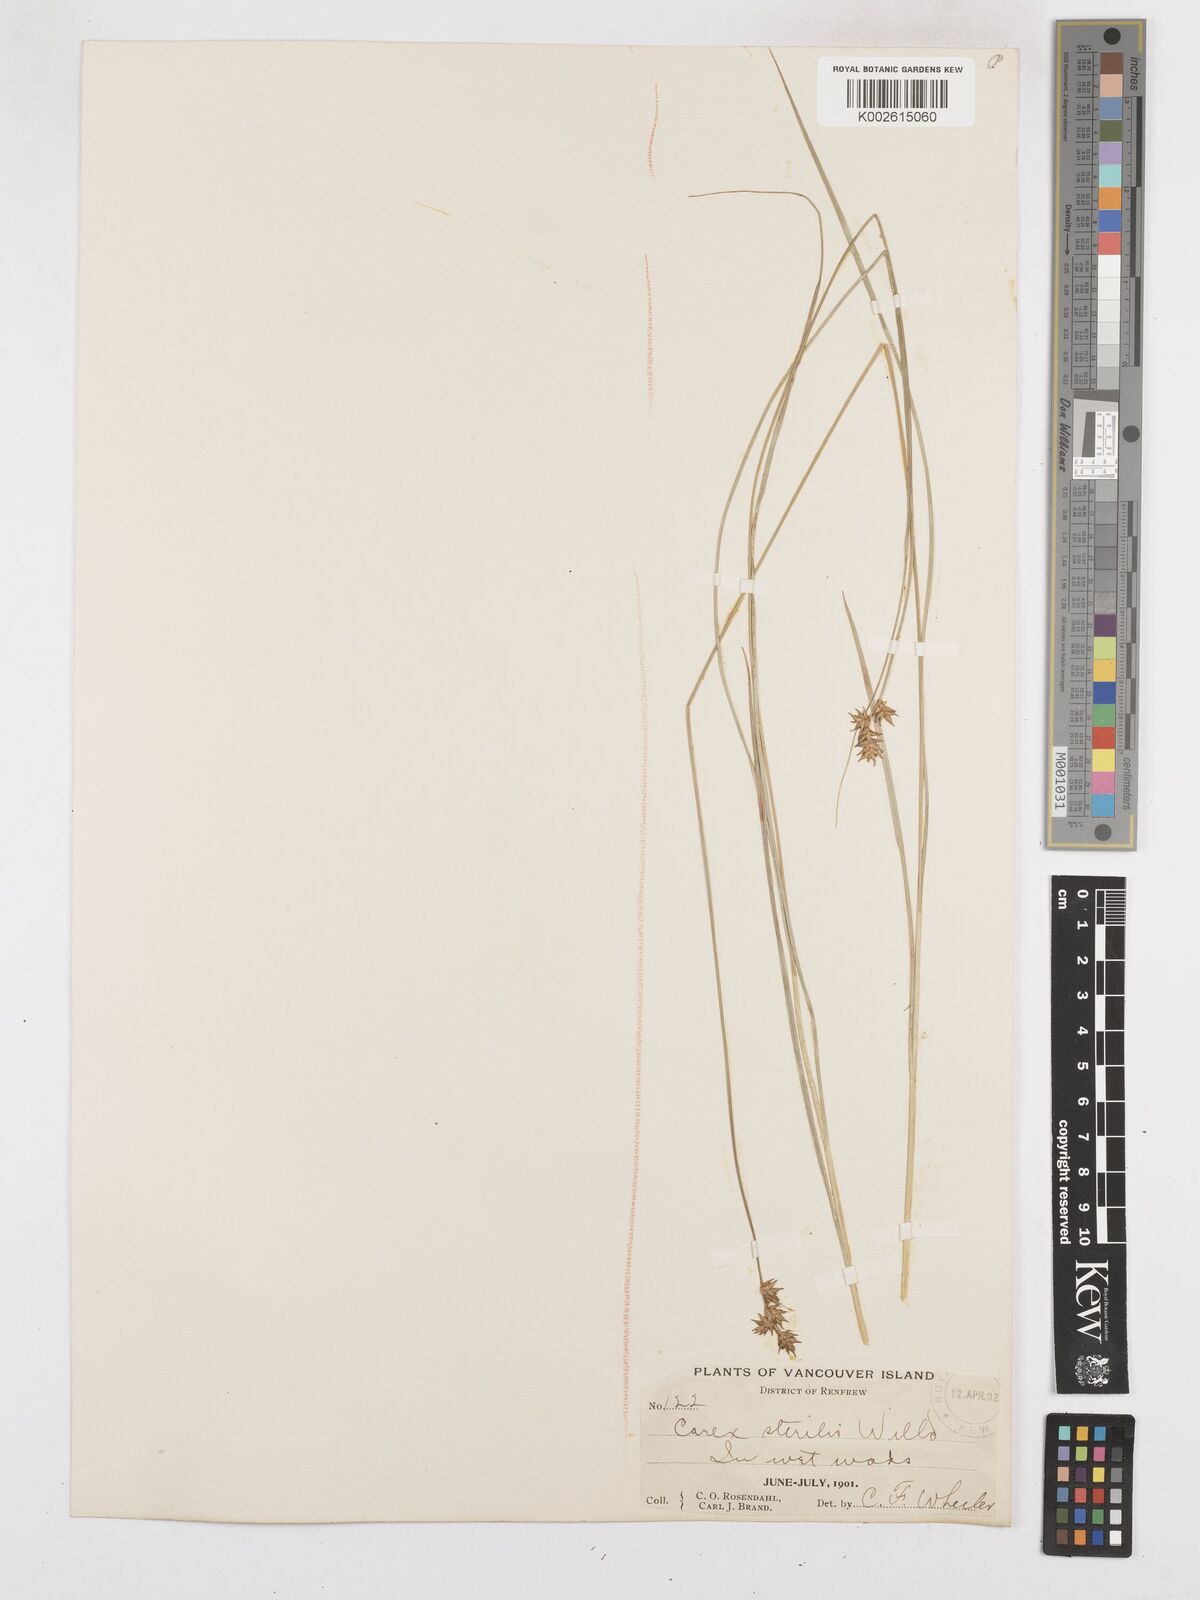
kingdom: Plantae
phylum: Tracheophyta
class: Liliopsida
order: Poales
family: Cyperaceae
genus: Carex
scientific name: Carex sterilis
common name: Dioecious sedge
